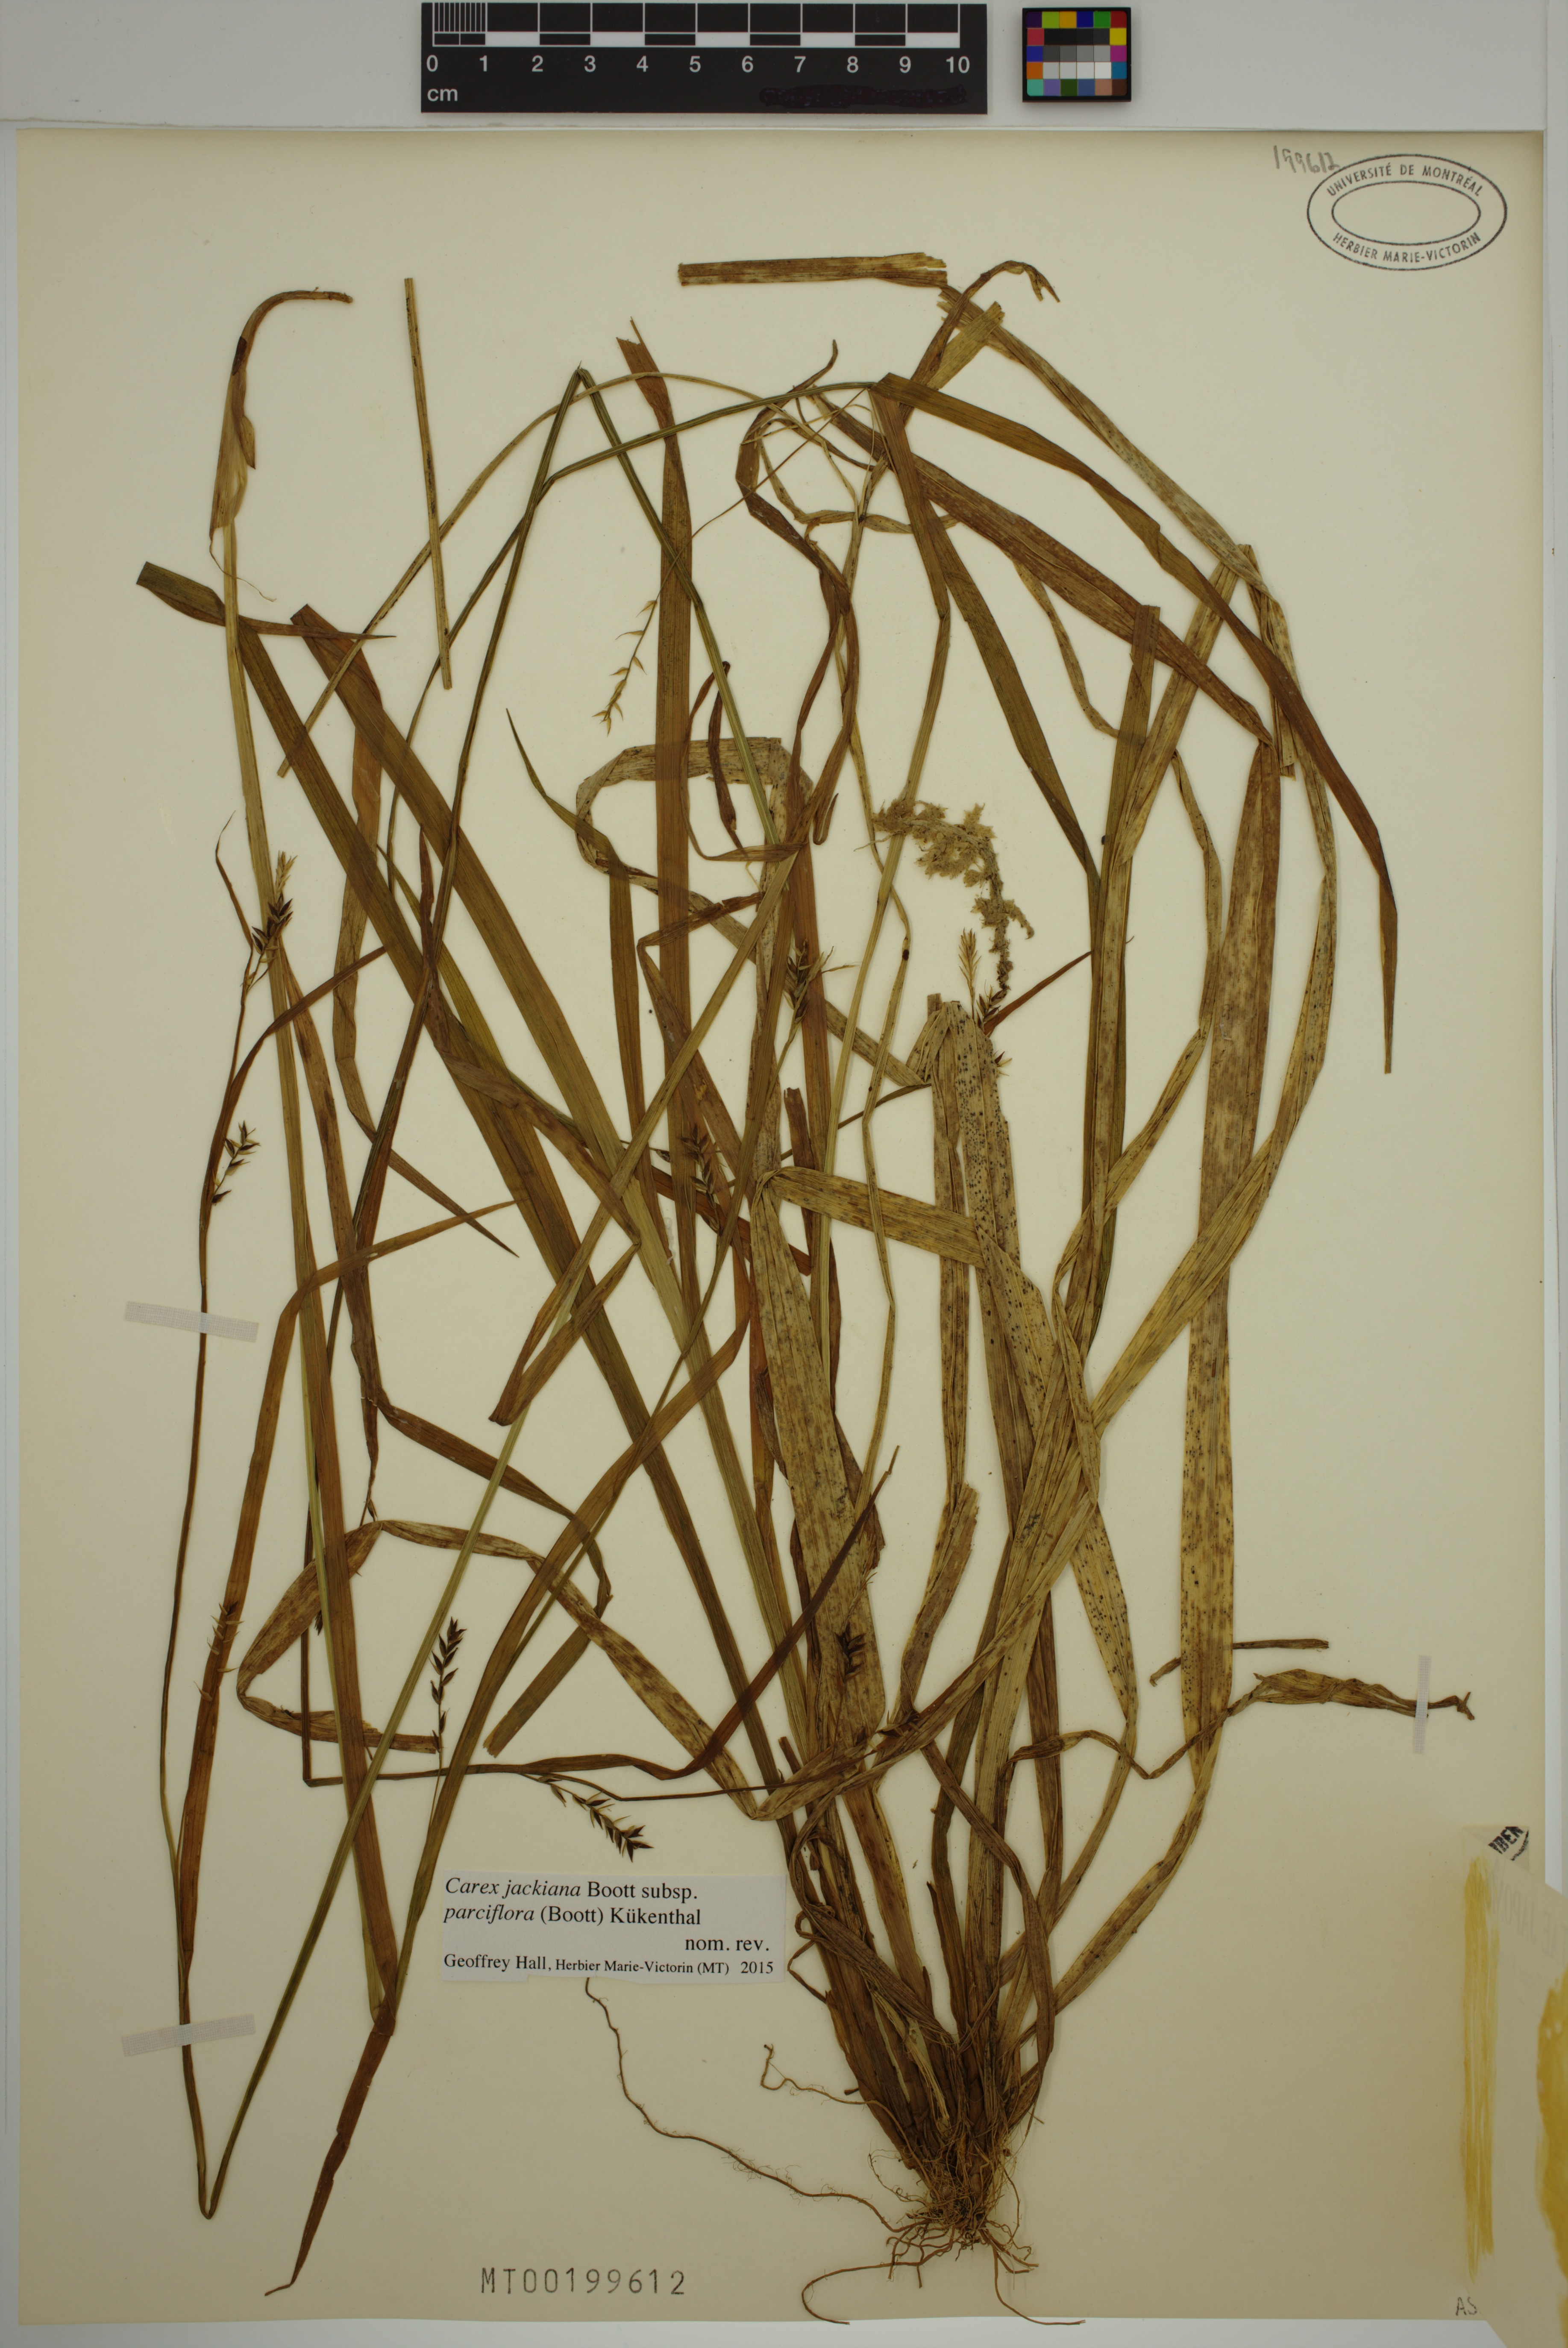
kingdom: Plantae
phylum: Tracheophyta
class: Liliopsida
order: Poales
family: Cyperaceae
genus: Carex
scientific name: Carex parciflora
